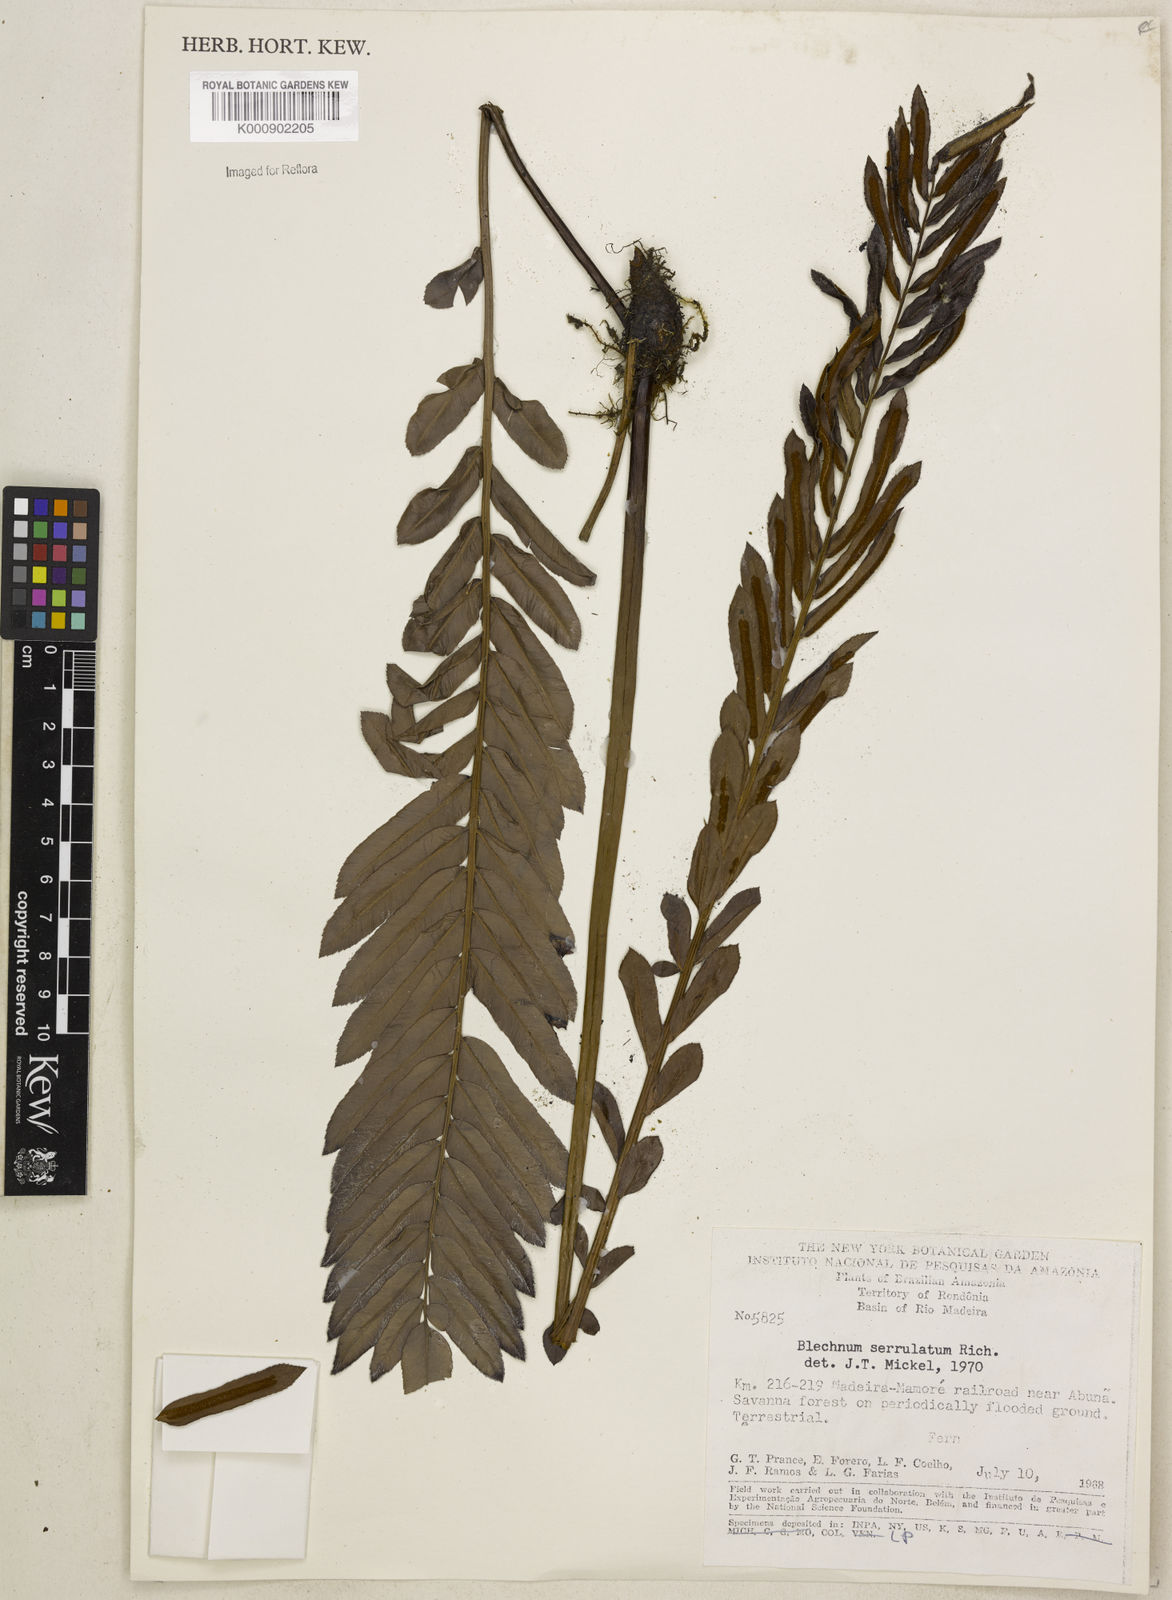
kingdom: Plantae
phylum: Tracheophyta
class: Polypodiopsida
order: Polypodiales
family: Blechnaceae
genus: Telmatoblechnum
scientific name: Telmatoblechnum serrulatum
